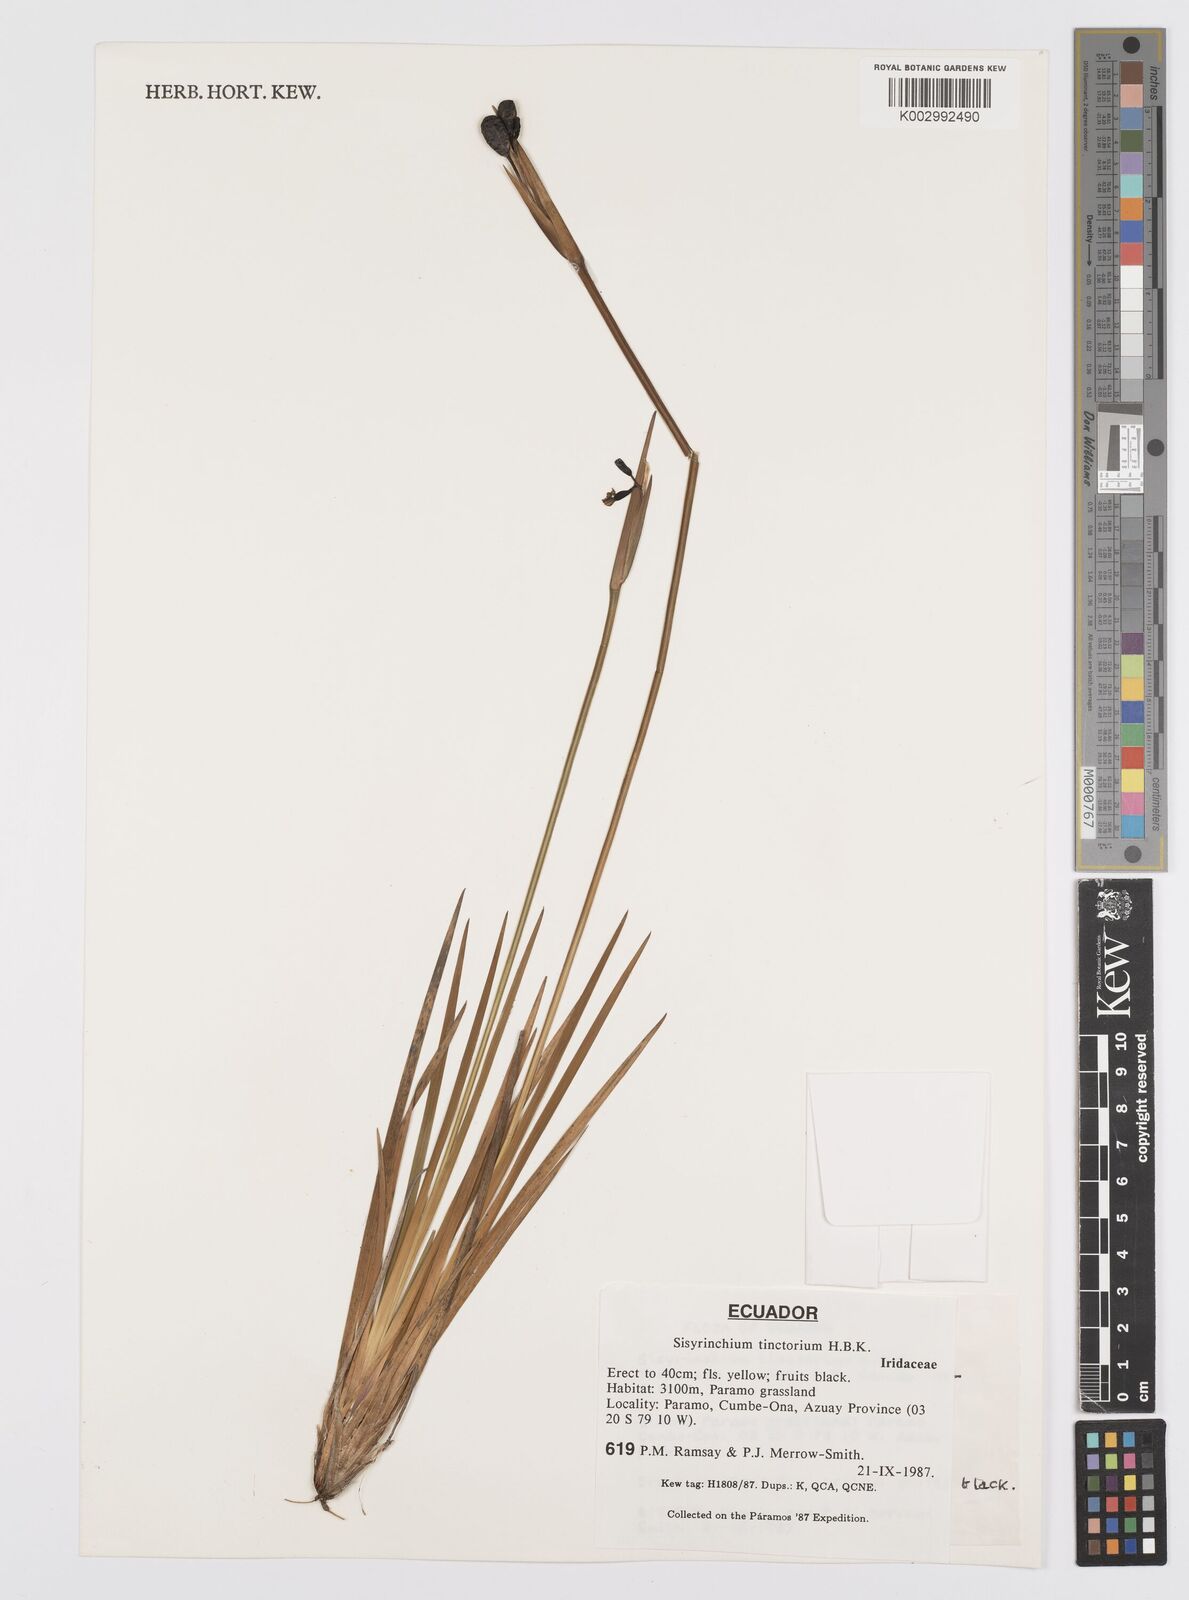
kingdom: Plantae
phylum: Tracheophyta
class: Liliopsida
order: Asparagales
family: Iridaceae
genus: Sisyrinchium
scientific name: Sisyrinchium tinctorium
